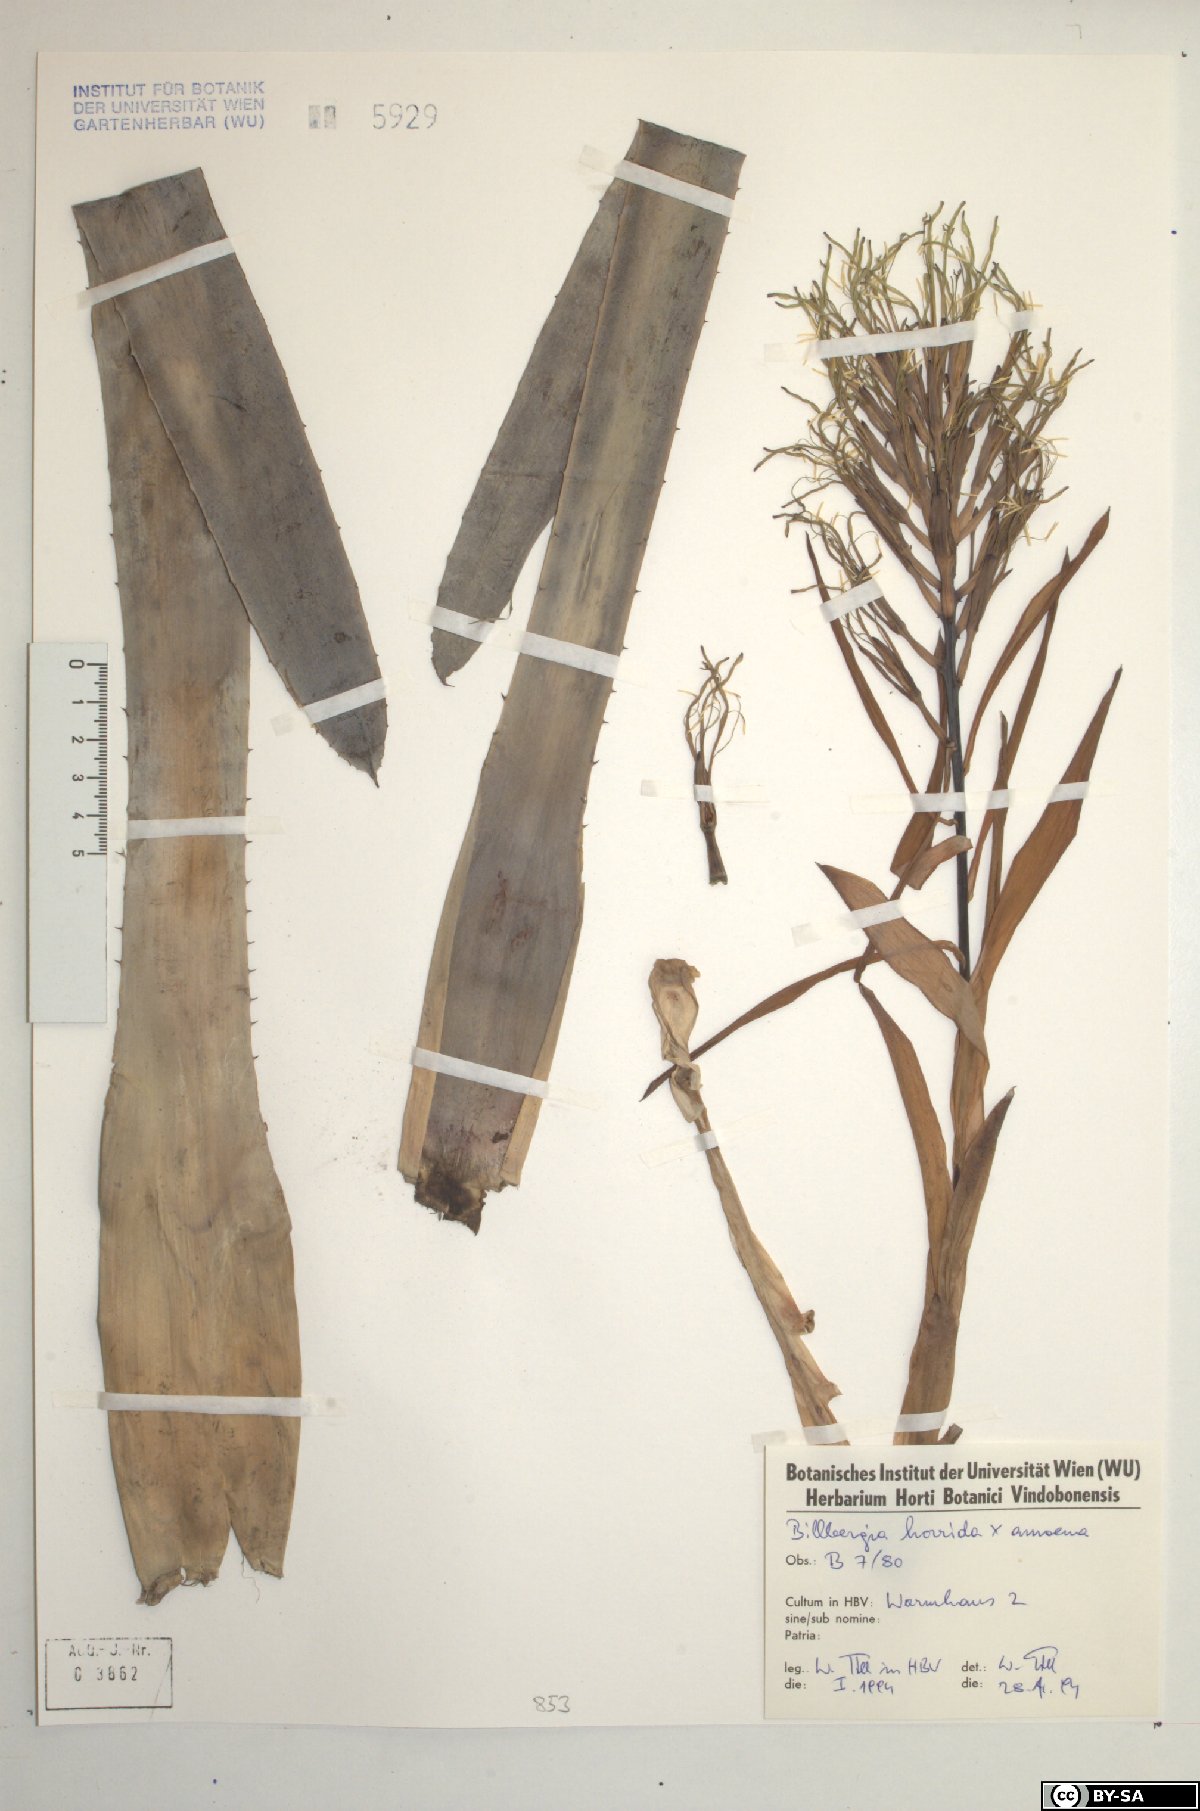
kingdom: Plantae
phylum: Tracheophyta
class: Liliopsida
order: Poales
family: Bromeliaceae
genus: Billbergia
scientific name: Billbergia horrida
